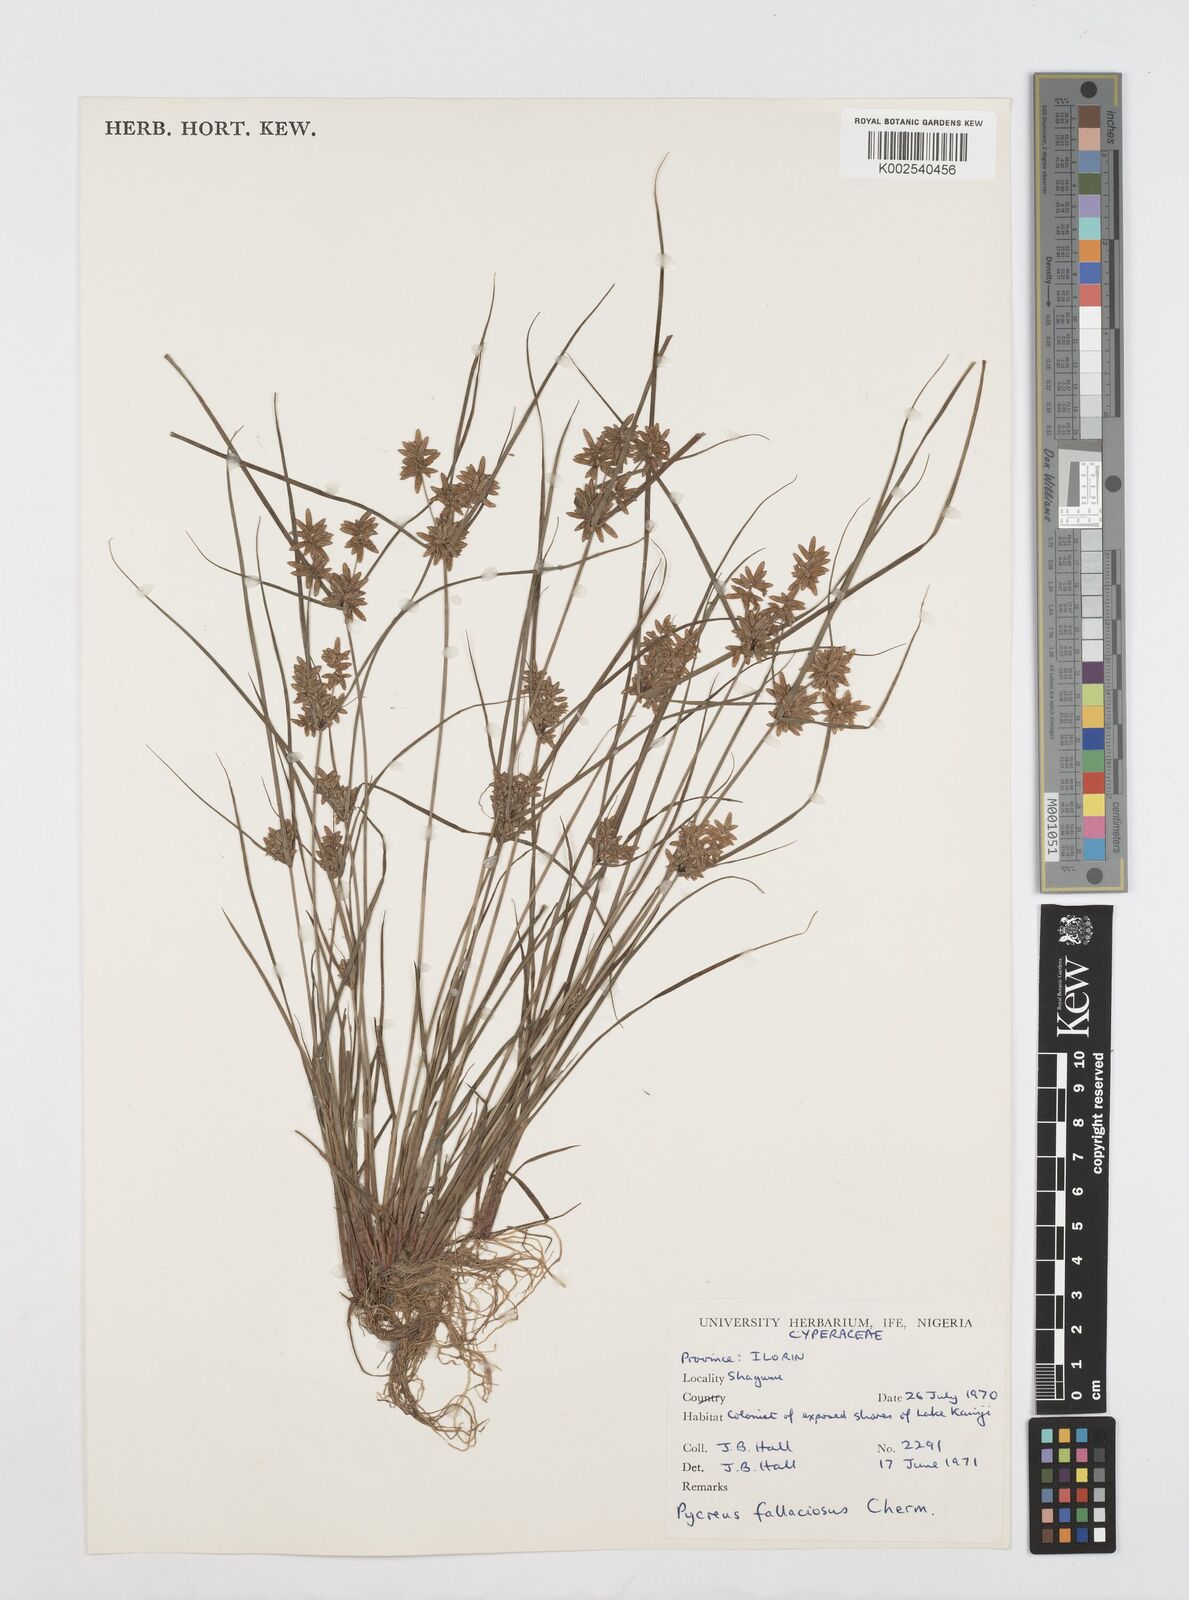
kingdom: Plantae
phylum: Tracheophyta
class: Liliopsida
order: Poales
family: Cyperaceae
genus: Cyperus
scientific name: Cyperus flavescens
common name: Yellow galingale
